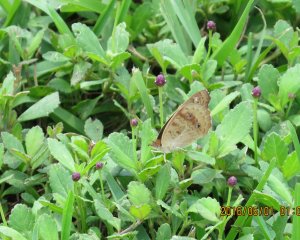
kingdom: Animalia
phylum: Arthropoda
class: Insecta
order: Lepidoptera
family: Nymphalidae
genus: Junonia
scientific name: Junonia coenia
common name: Common Buckeye
